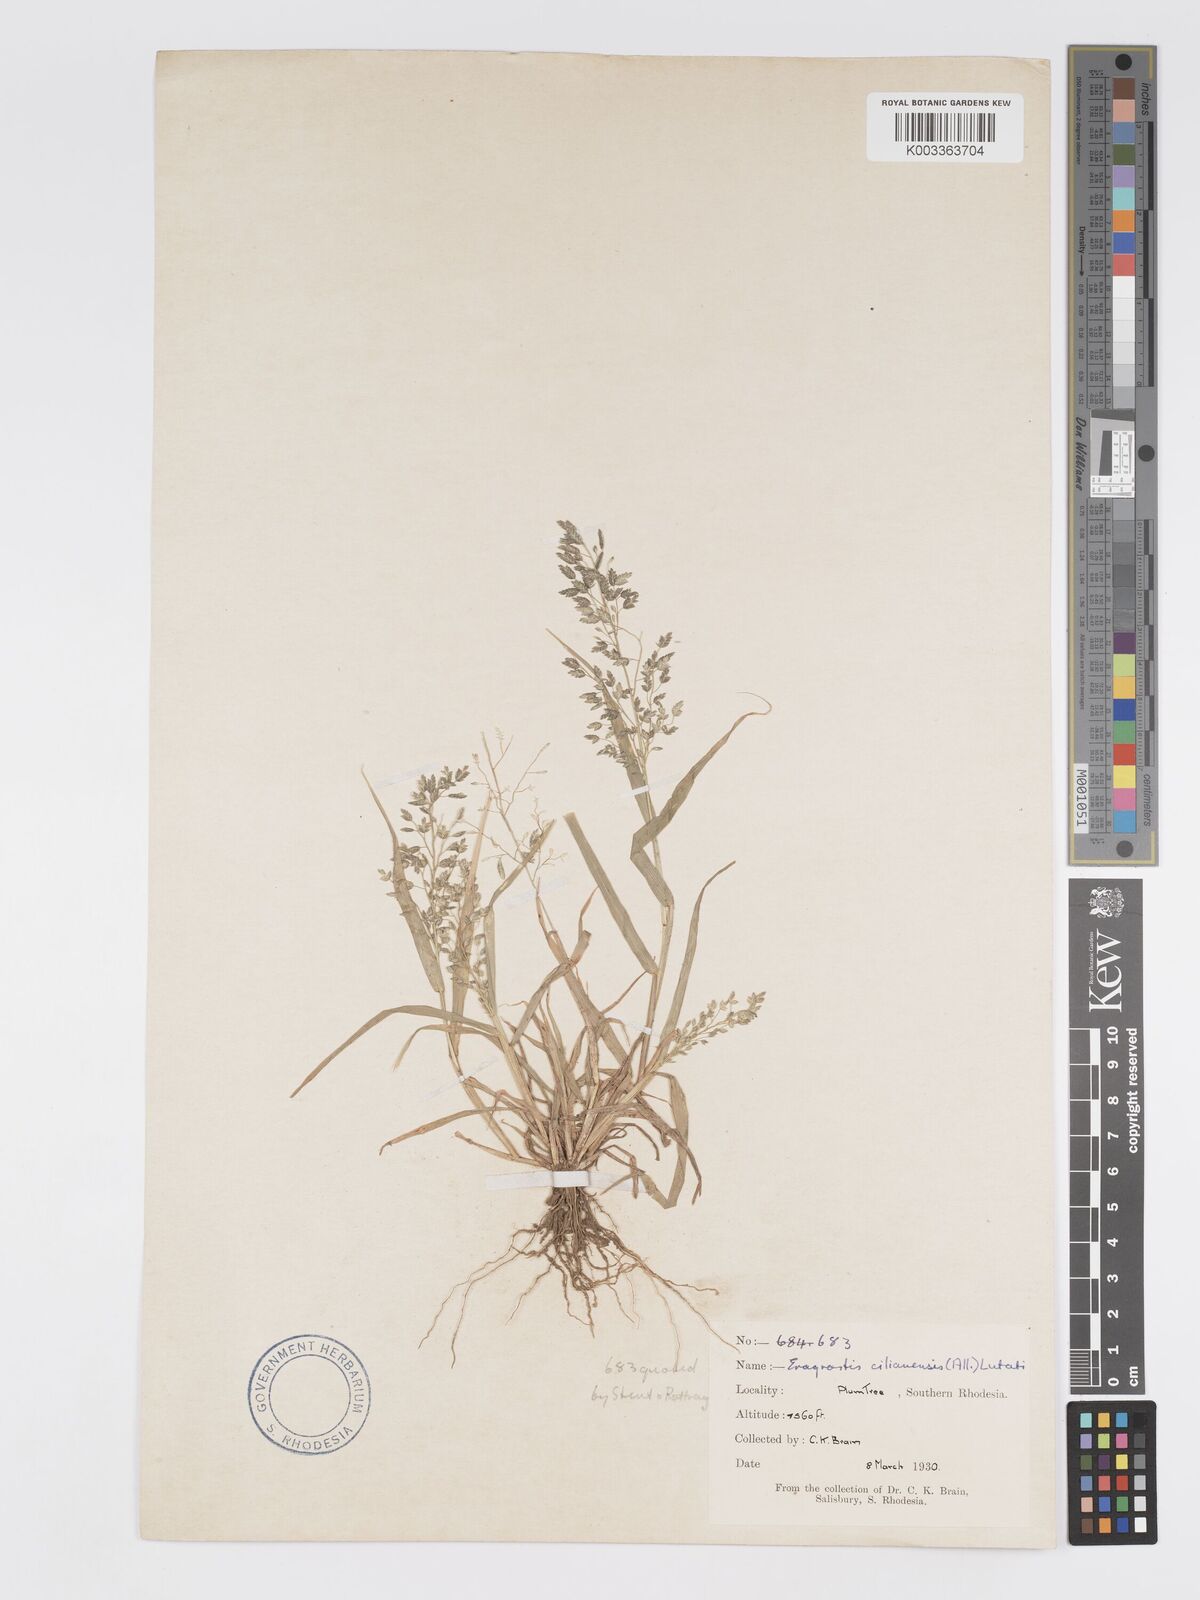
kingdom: Plantae
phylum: Tracheophyta
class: Liliopsida
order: Poales
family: Poaceae
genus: Eragrostis
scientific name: Eragrostis cilianensis
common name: Stinkgrass
